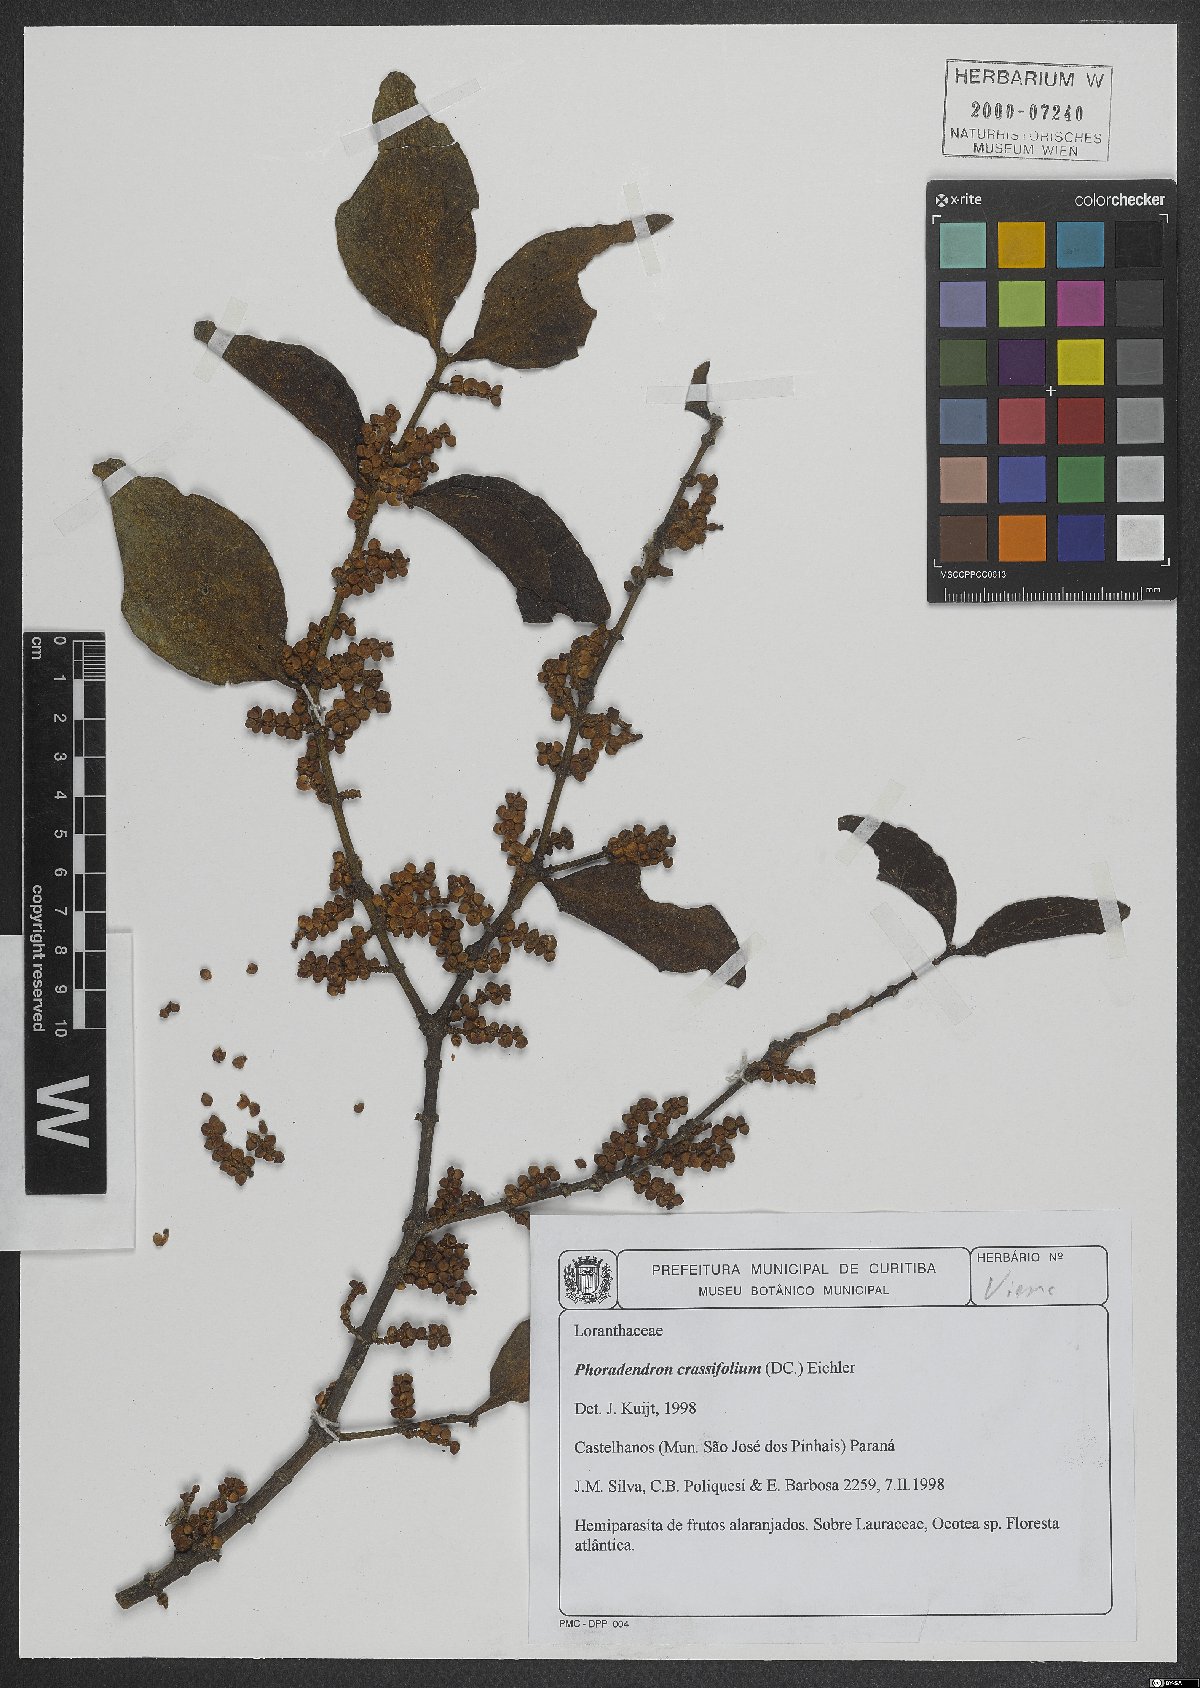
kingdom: Plantae
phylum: Tracheophyta
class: Magnoliopsida
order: Santalales
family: Viscaceae
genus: Phoradendron
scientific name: Phoradendron crassifolium
